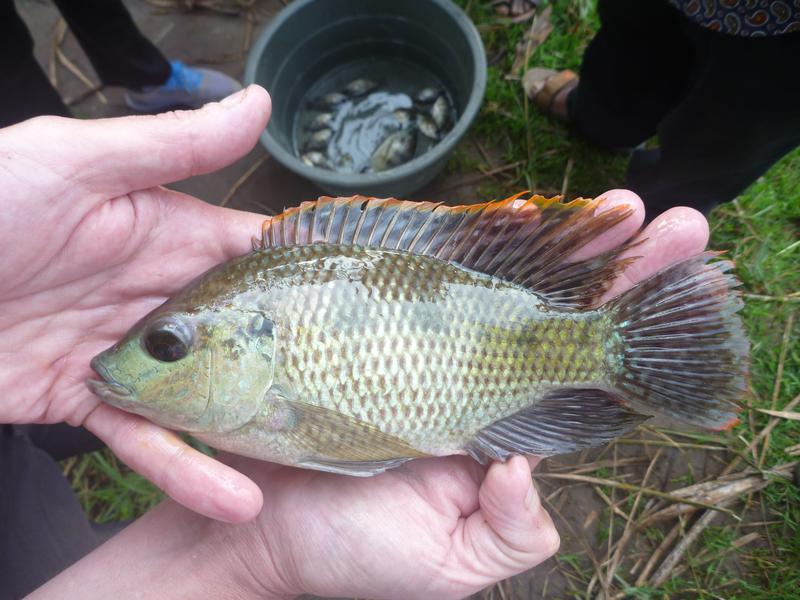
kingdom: Animalia
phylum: Chordata
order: Perciformes
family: Cichlidae
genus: Oreochromis
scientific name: Oreochromis upembae
